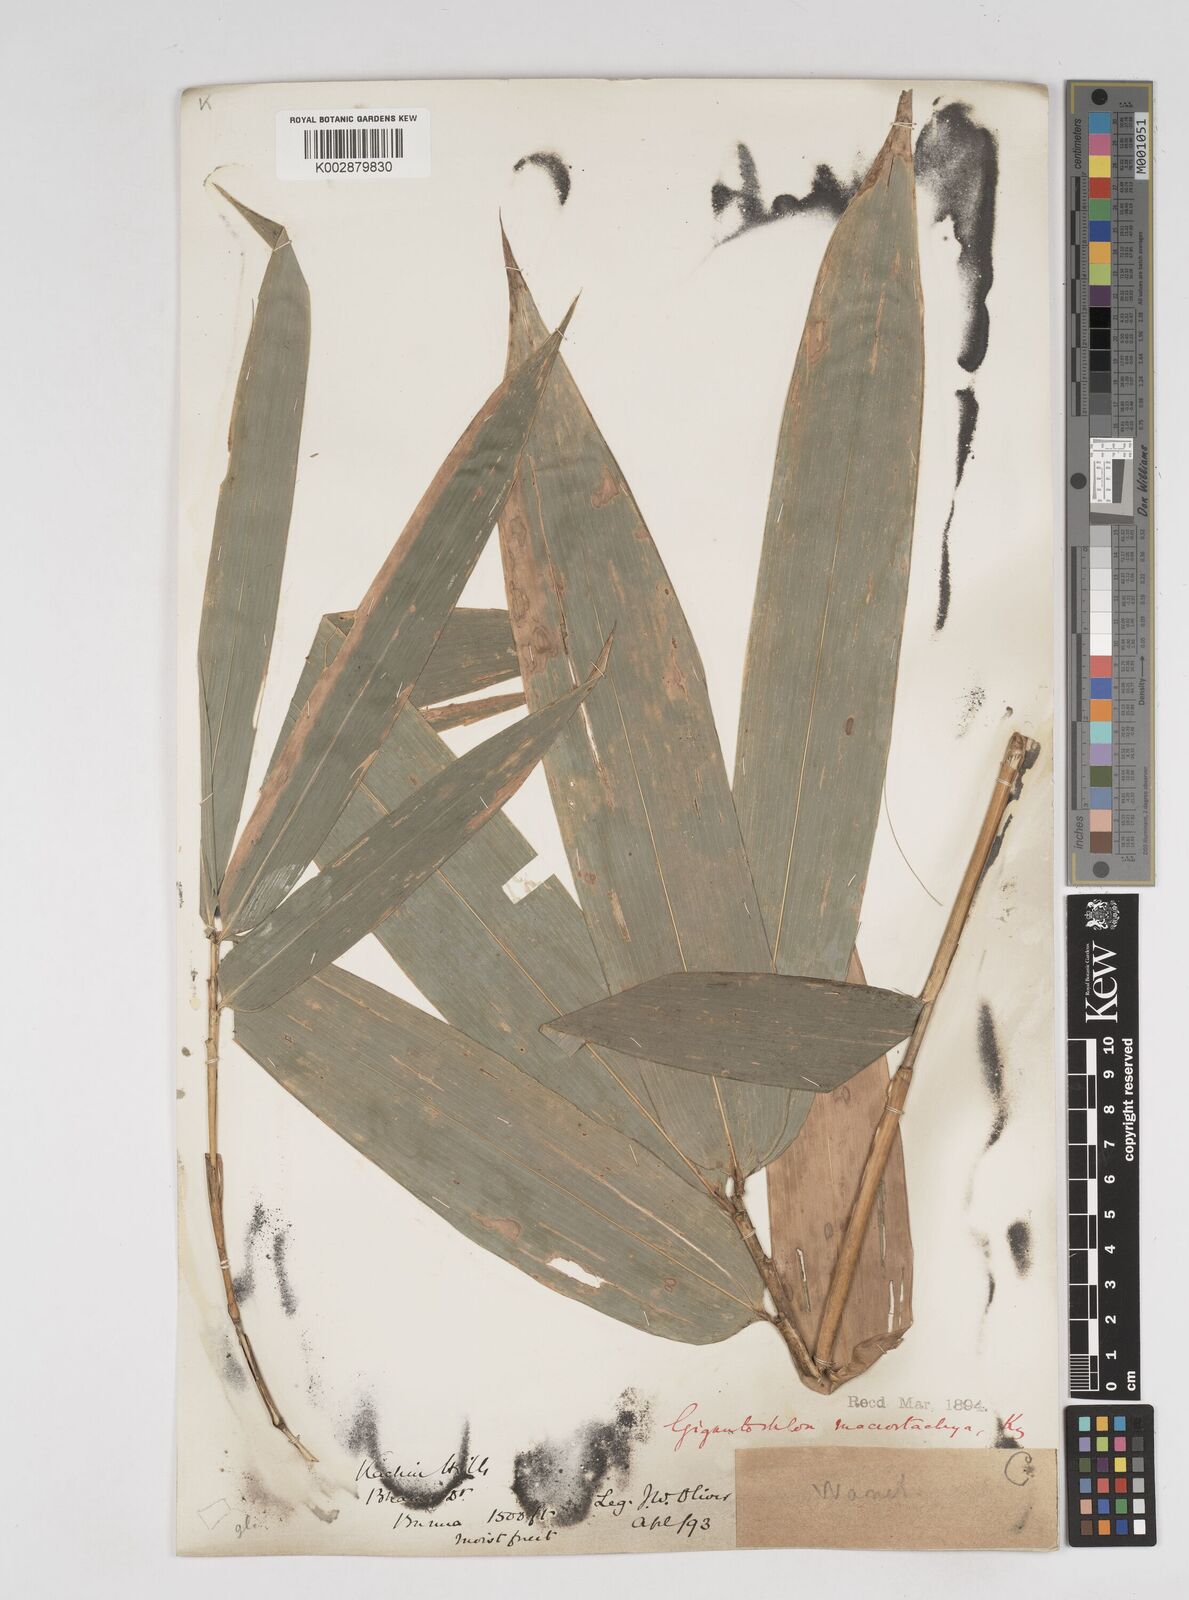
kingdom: Plantae
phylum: Tracheophyta
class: Liliopsida
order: Poales
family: Poaceae
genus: Gigantochloa
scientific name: Gigantochloa macrostachya
